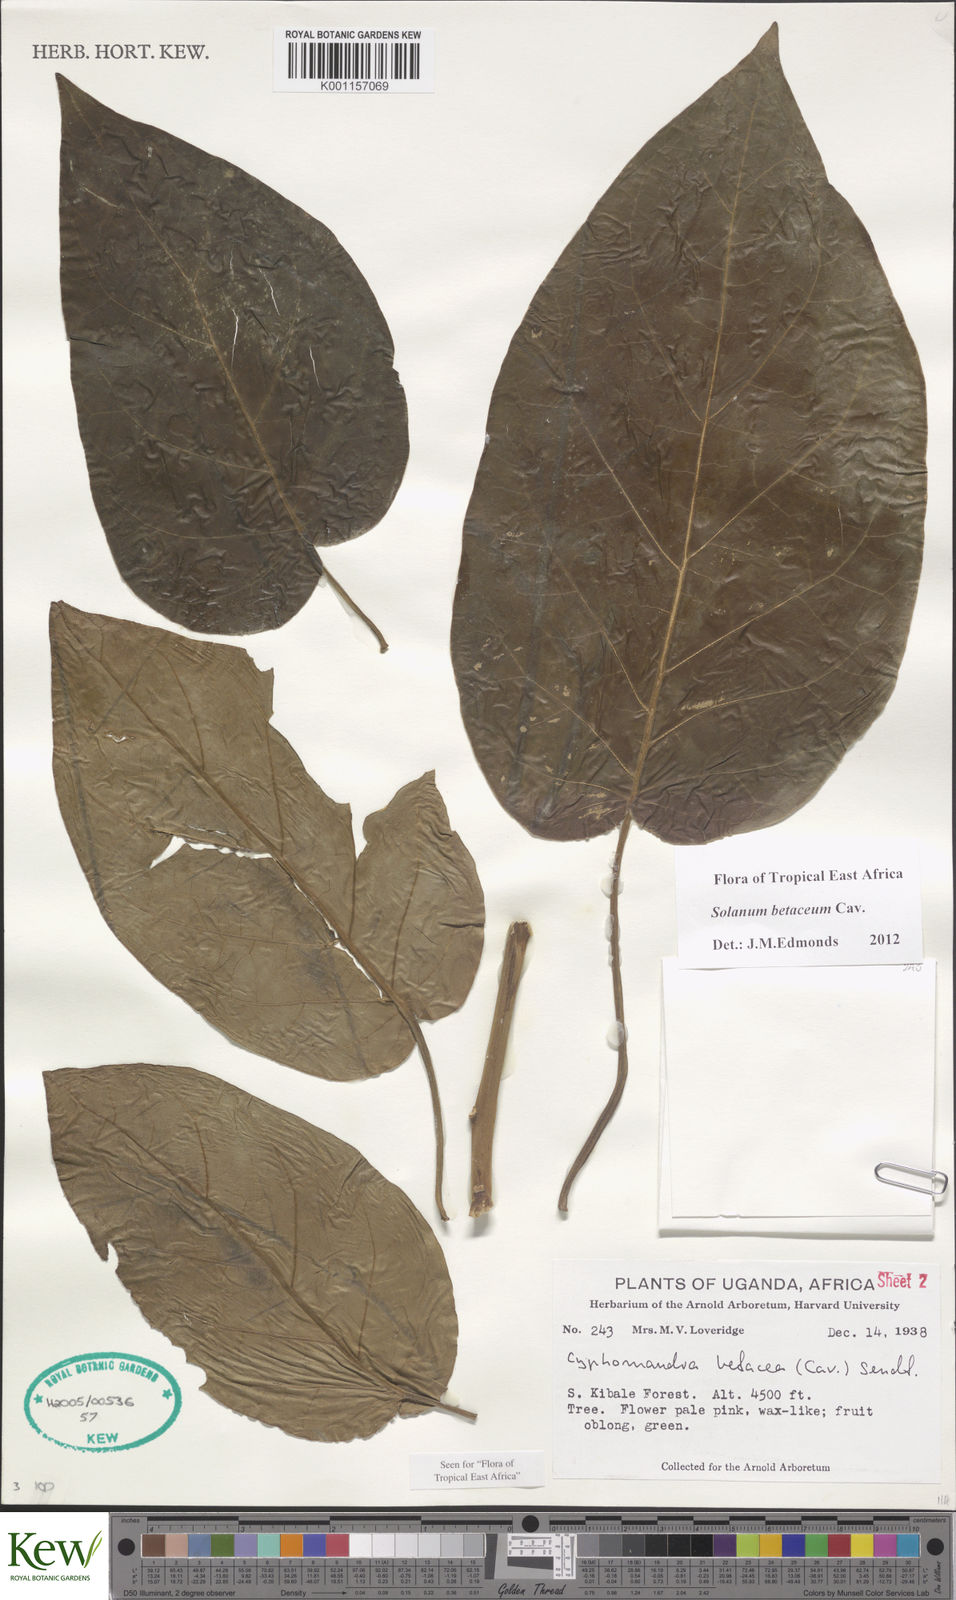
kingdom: Plantae
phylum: Tracheophyta
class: Magnoliopsida
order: Solanales
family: Solanaceae
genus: Solanum
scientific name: Solanum betaceum
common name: Tamarillo
